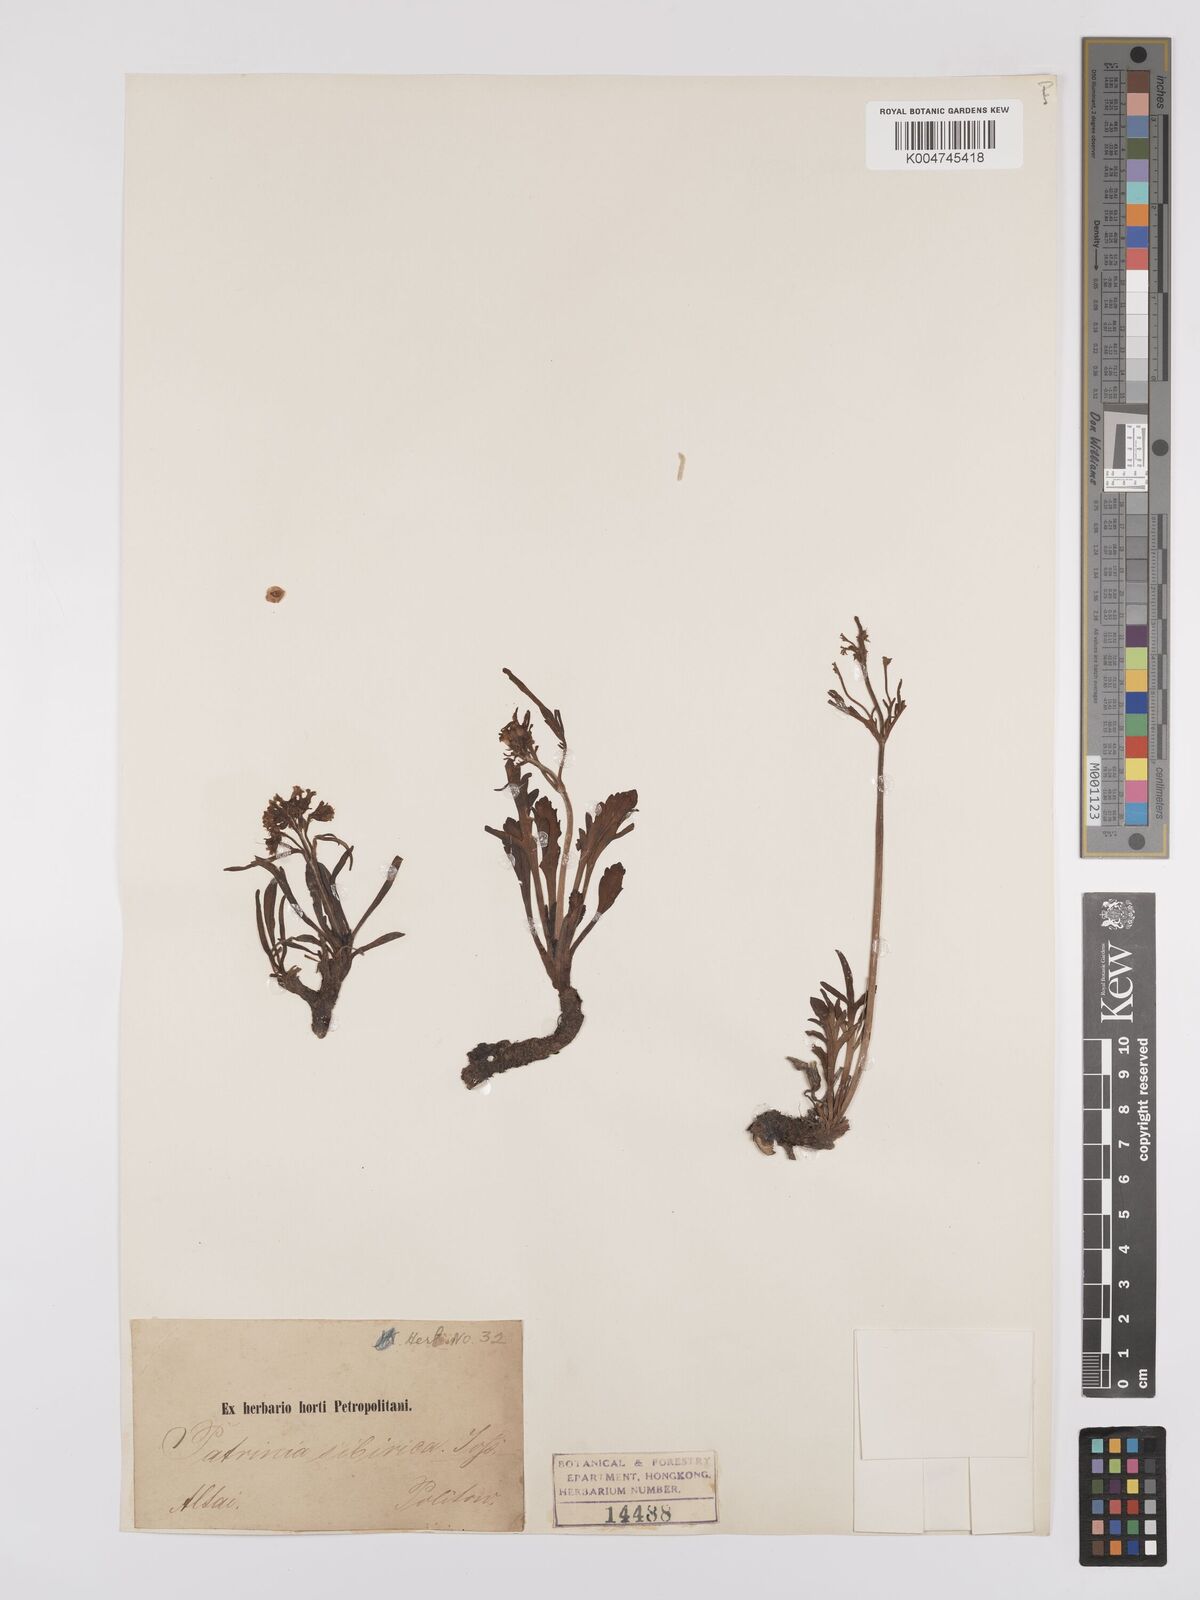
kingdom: Plantae
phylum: Tracheophyta
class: Magnoliopsida
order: Dipsacales
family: Caprifoliaceae
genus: Patrinia
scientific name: Patrinia sibirica
